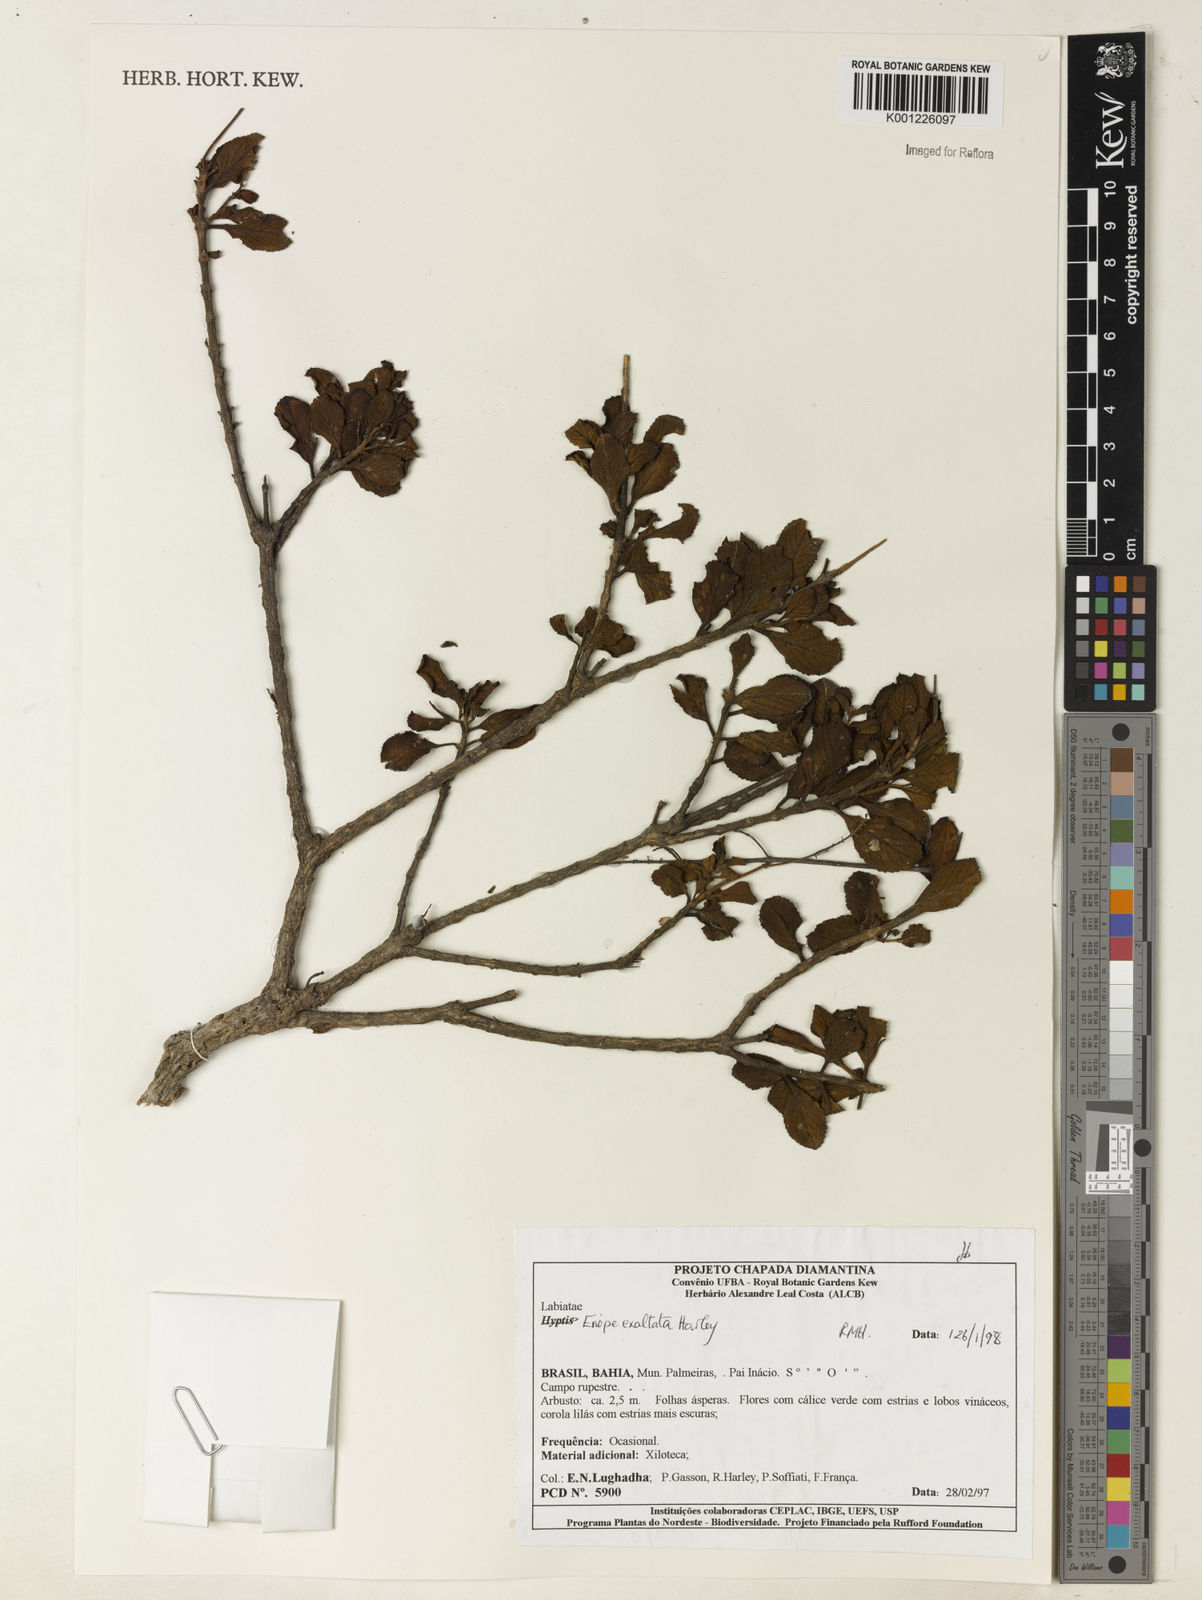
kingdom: Plantae
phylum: Tracheophyta
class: Magnoliopsida
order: Lamiales
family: Lamiaceae
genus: Eriope
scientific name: Eriope exaltata
